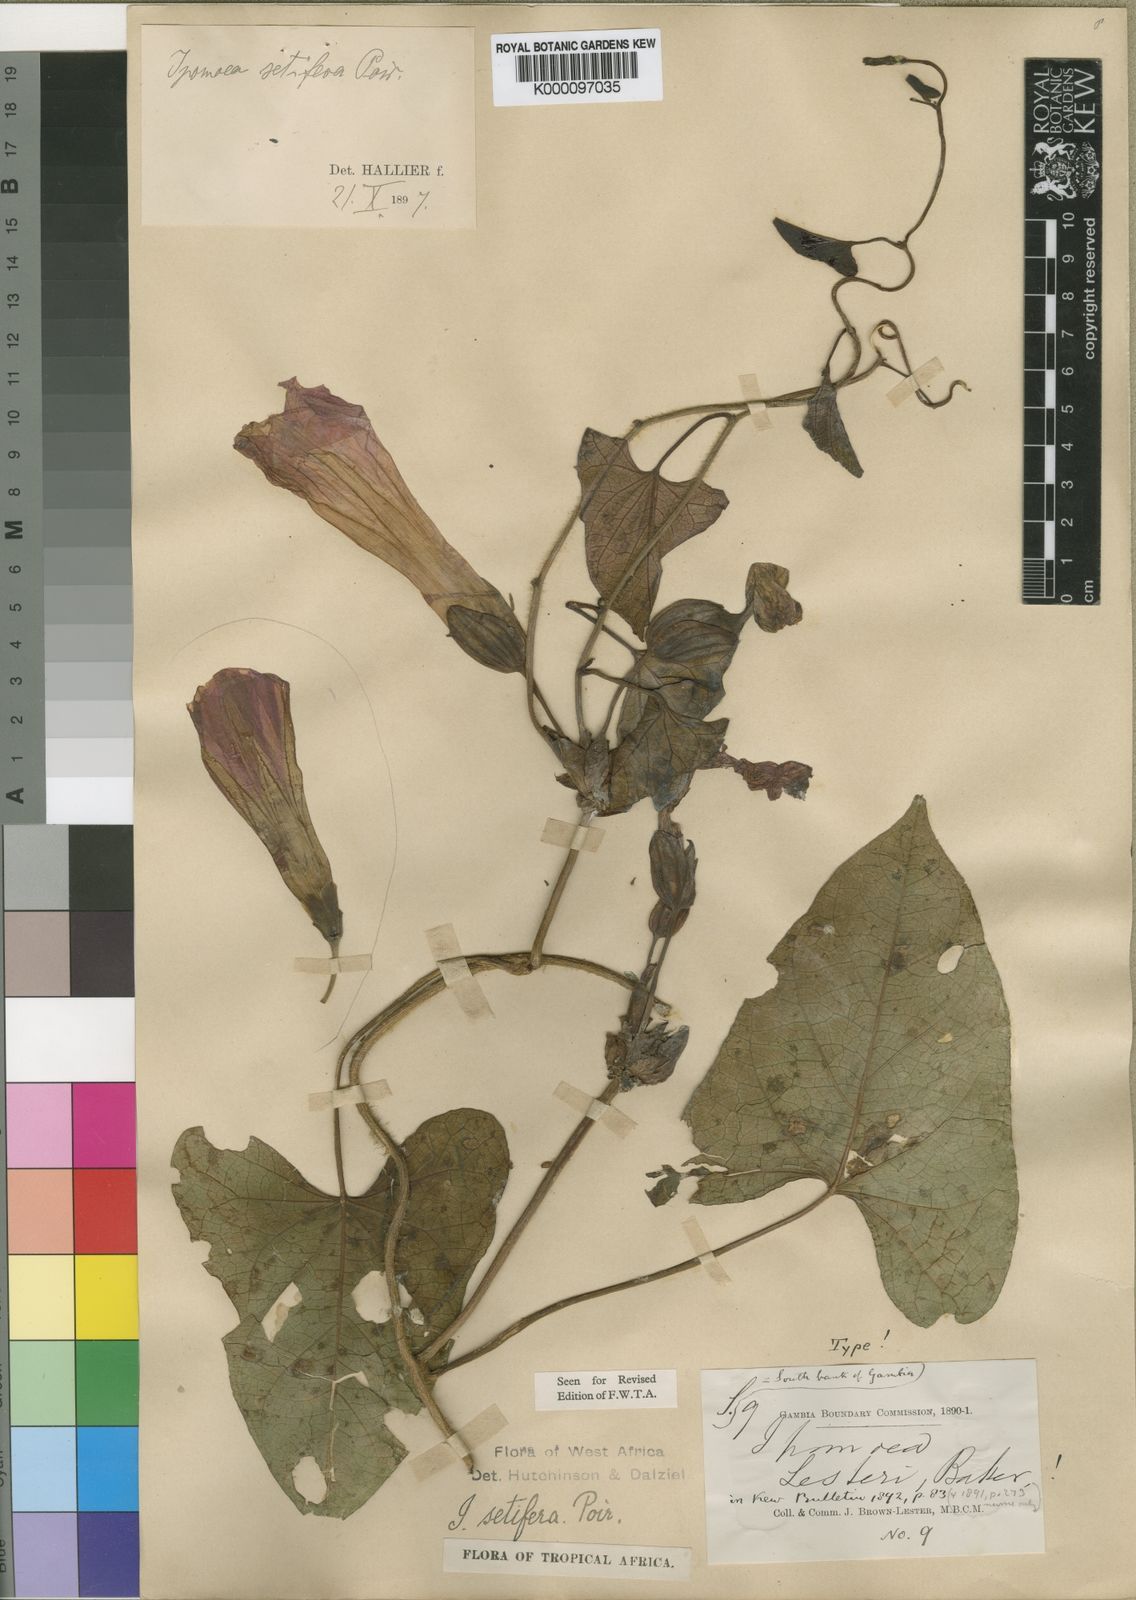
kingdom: Plantae
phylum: Tracheophyta
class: Magnoliopsida
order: Solanales
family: Convolvulaceae
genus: Ipomoea
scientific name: Ipomoea setifera
